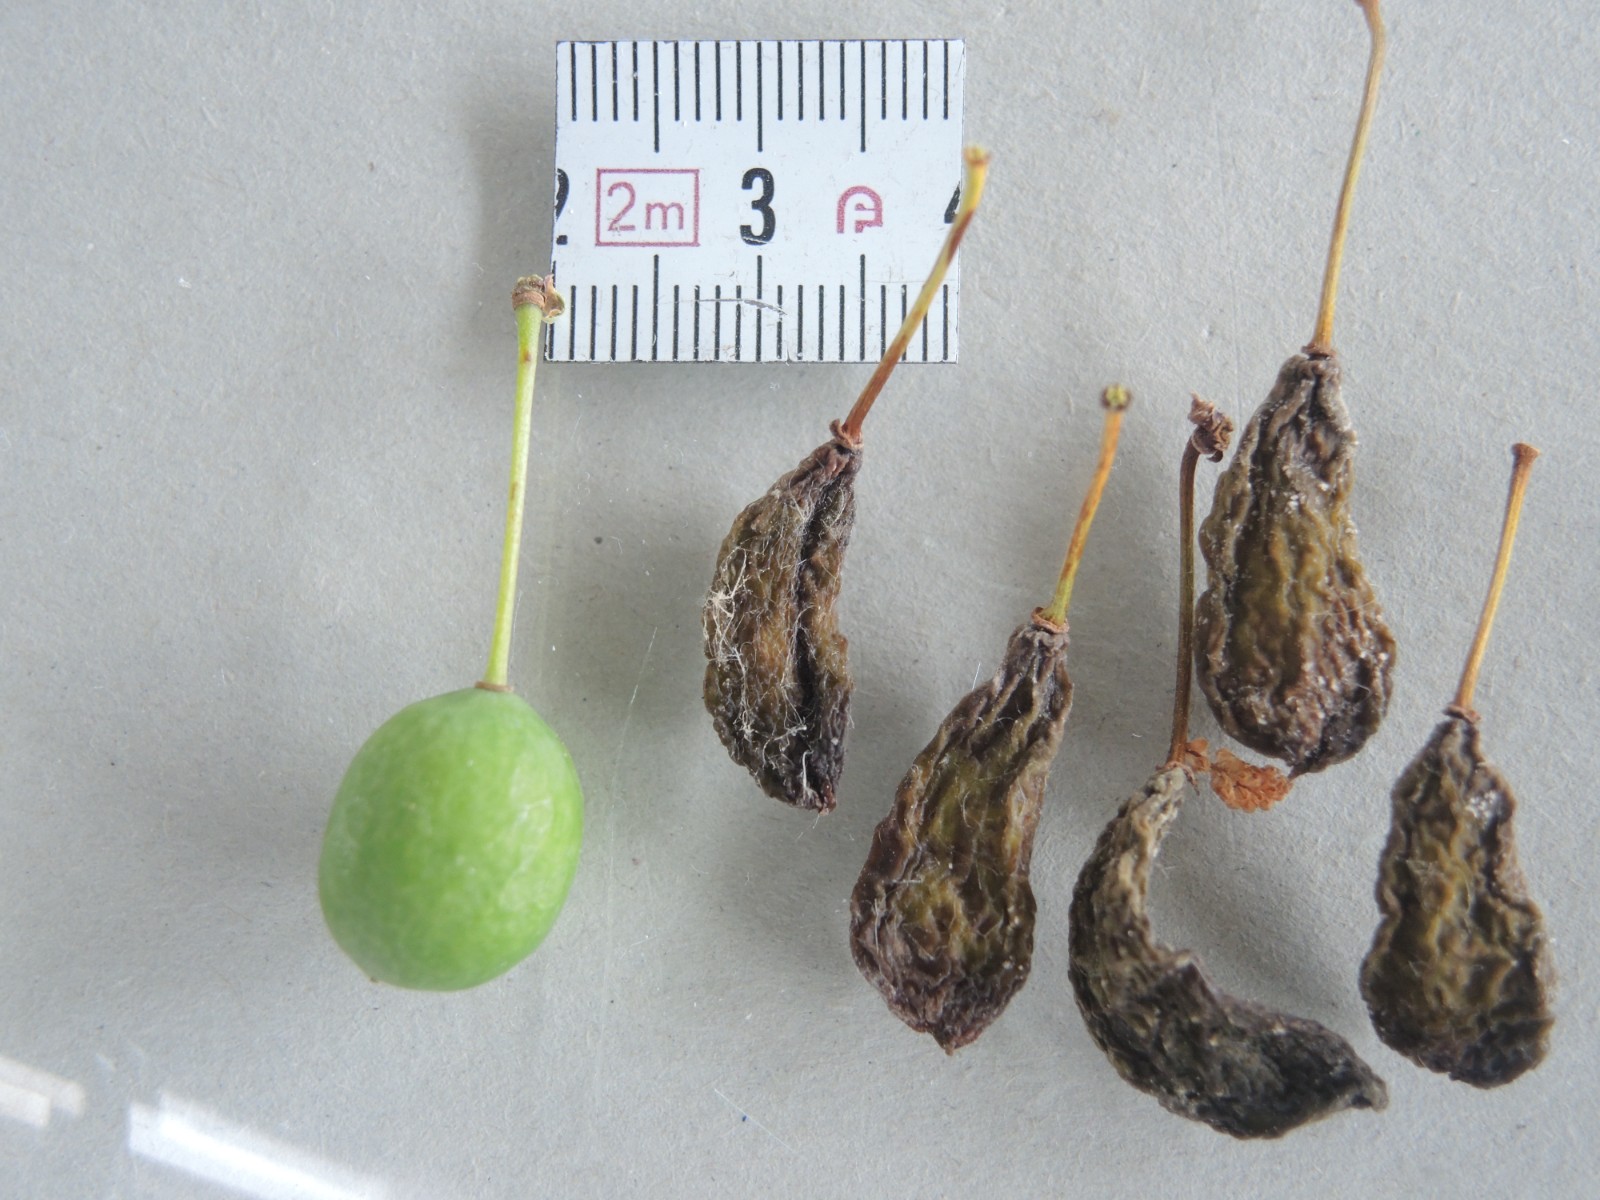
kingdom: Fungi
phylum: Ascomycota
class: Taphrinomycetes
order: Taphrinales
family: Taphrinaceae
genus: Taphrina
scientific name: Taphrina pruni
